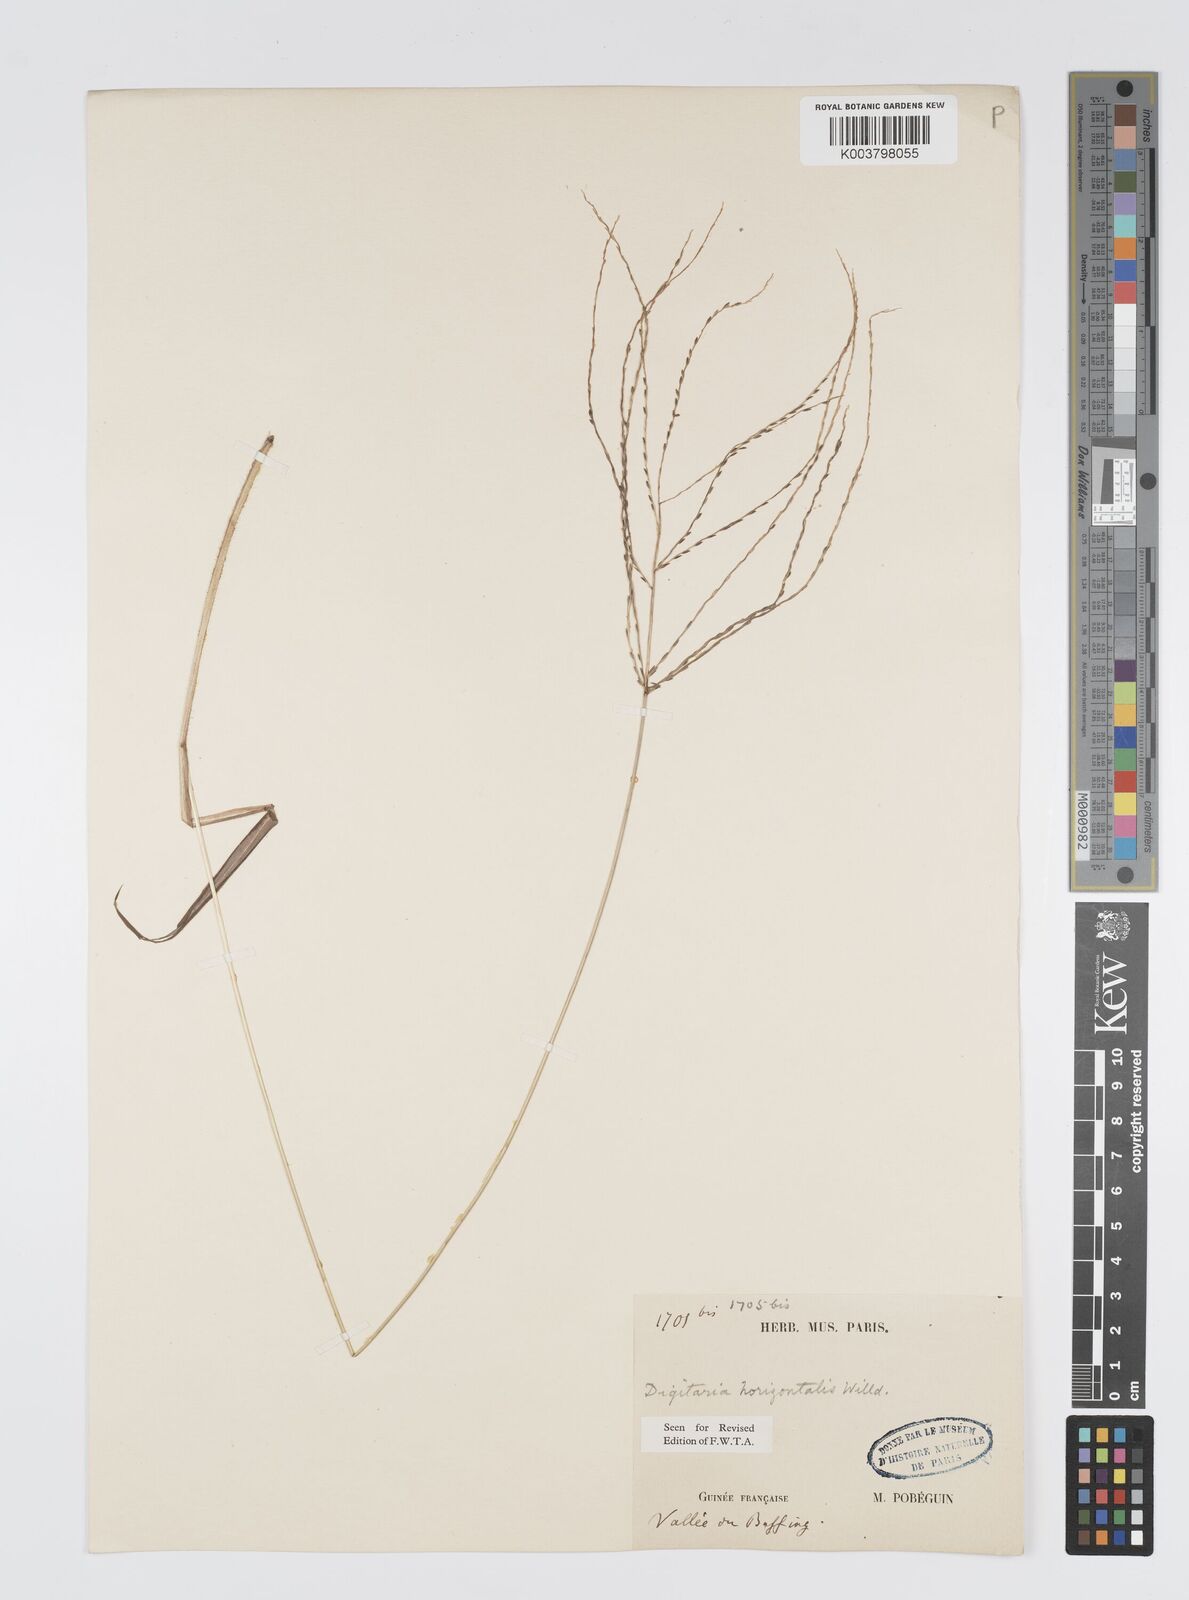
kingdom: Plantae
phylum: Tracheophyta
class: Liliopsida
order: Poales
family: Poaceae
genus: Digitaria
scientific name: Digitaria horizontalis
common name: Jamaican crabgrass
